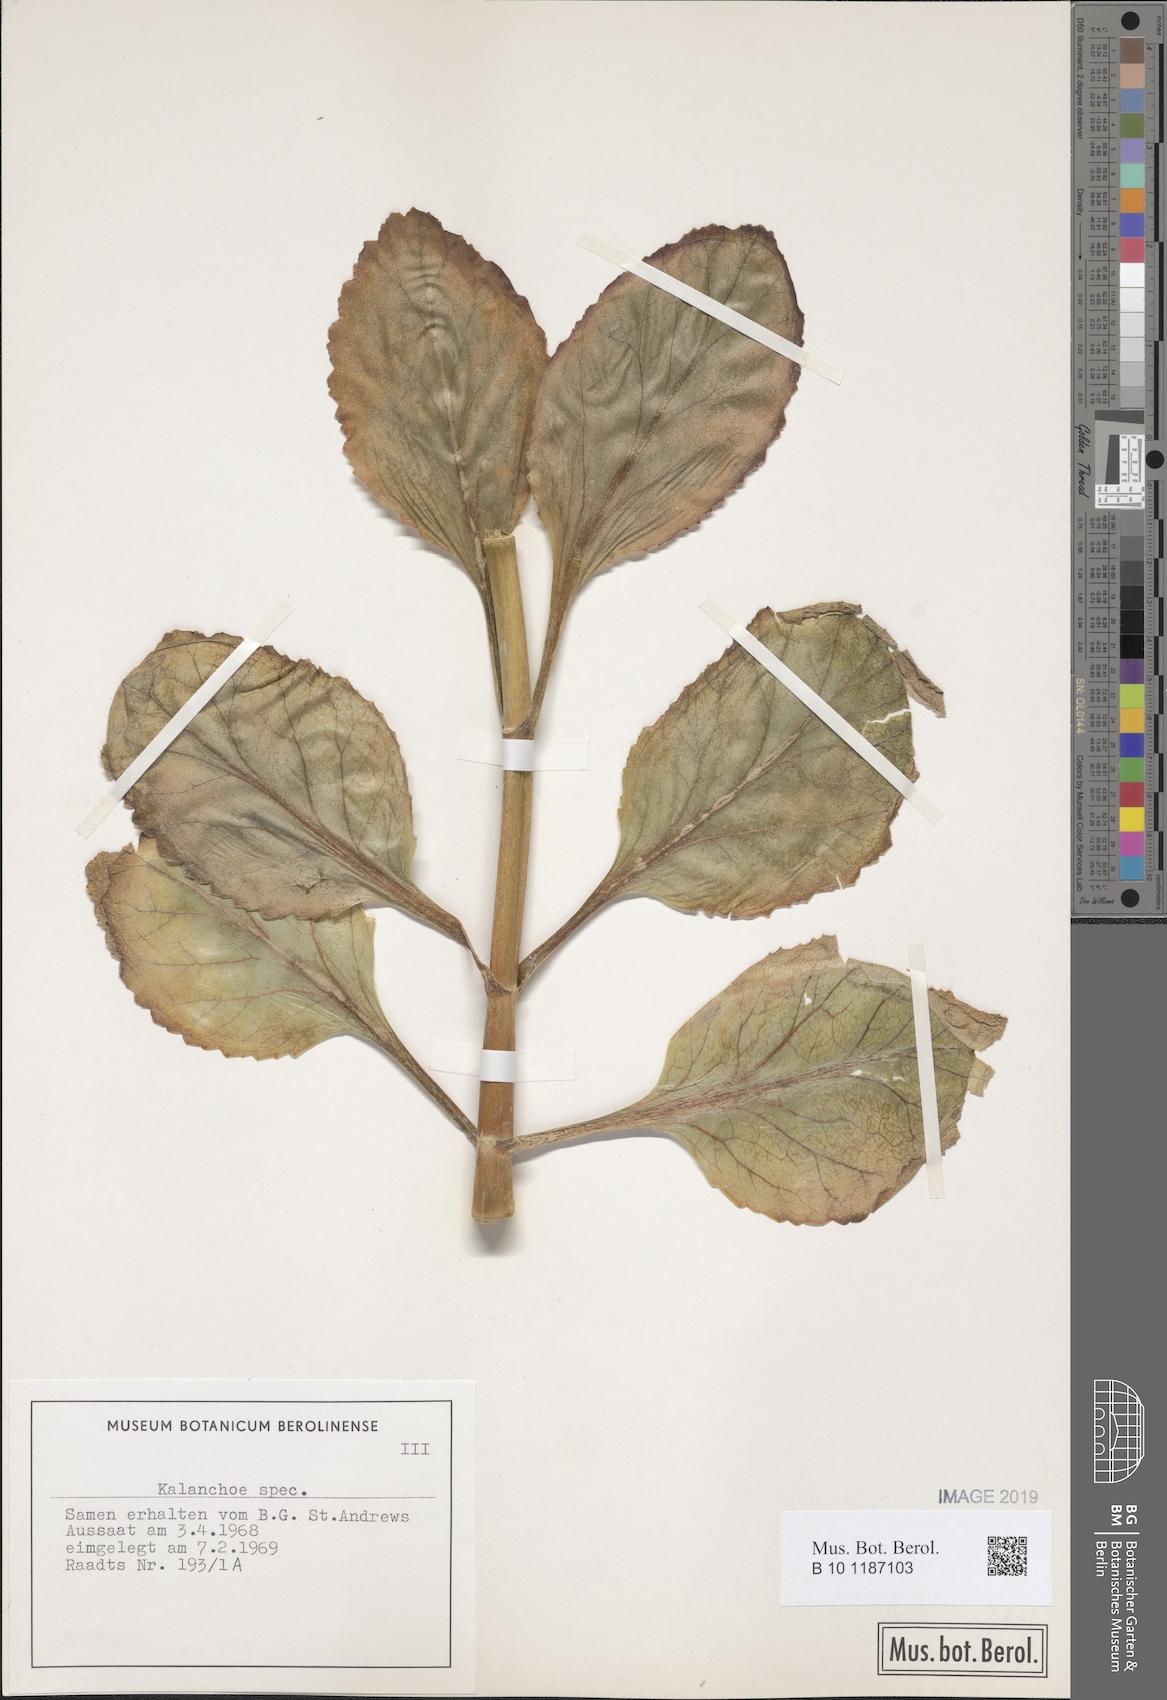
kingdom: Plantae
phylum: Tracheophyta
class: Magnoliopsida
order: Saxifragales
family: Crassulaceae
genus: Kalanchoe
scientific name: Kalanchoe
